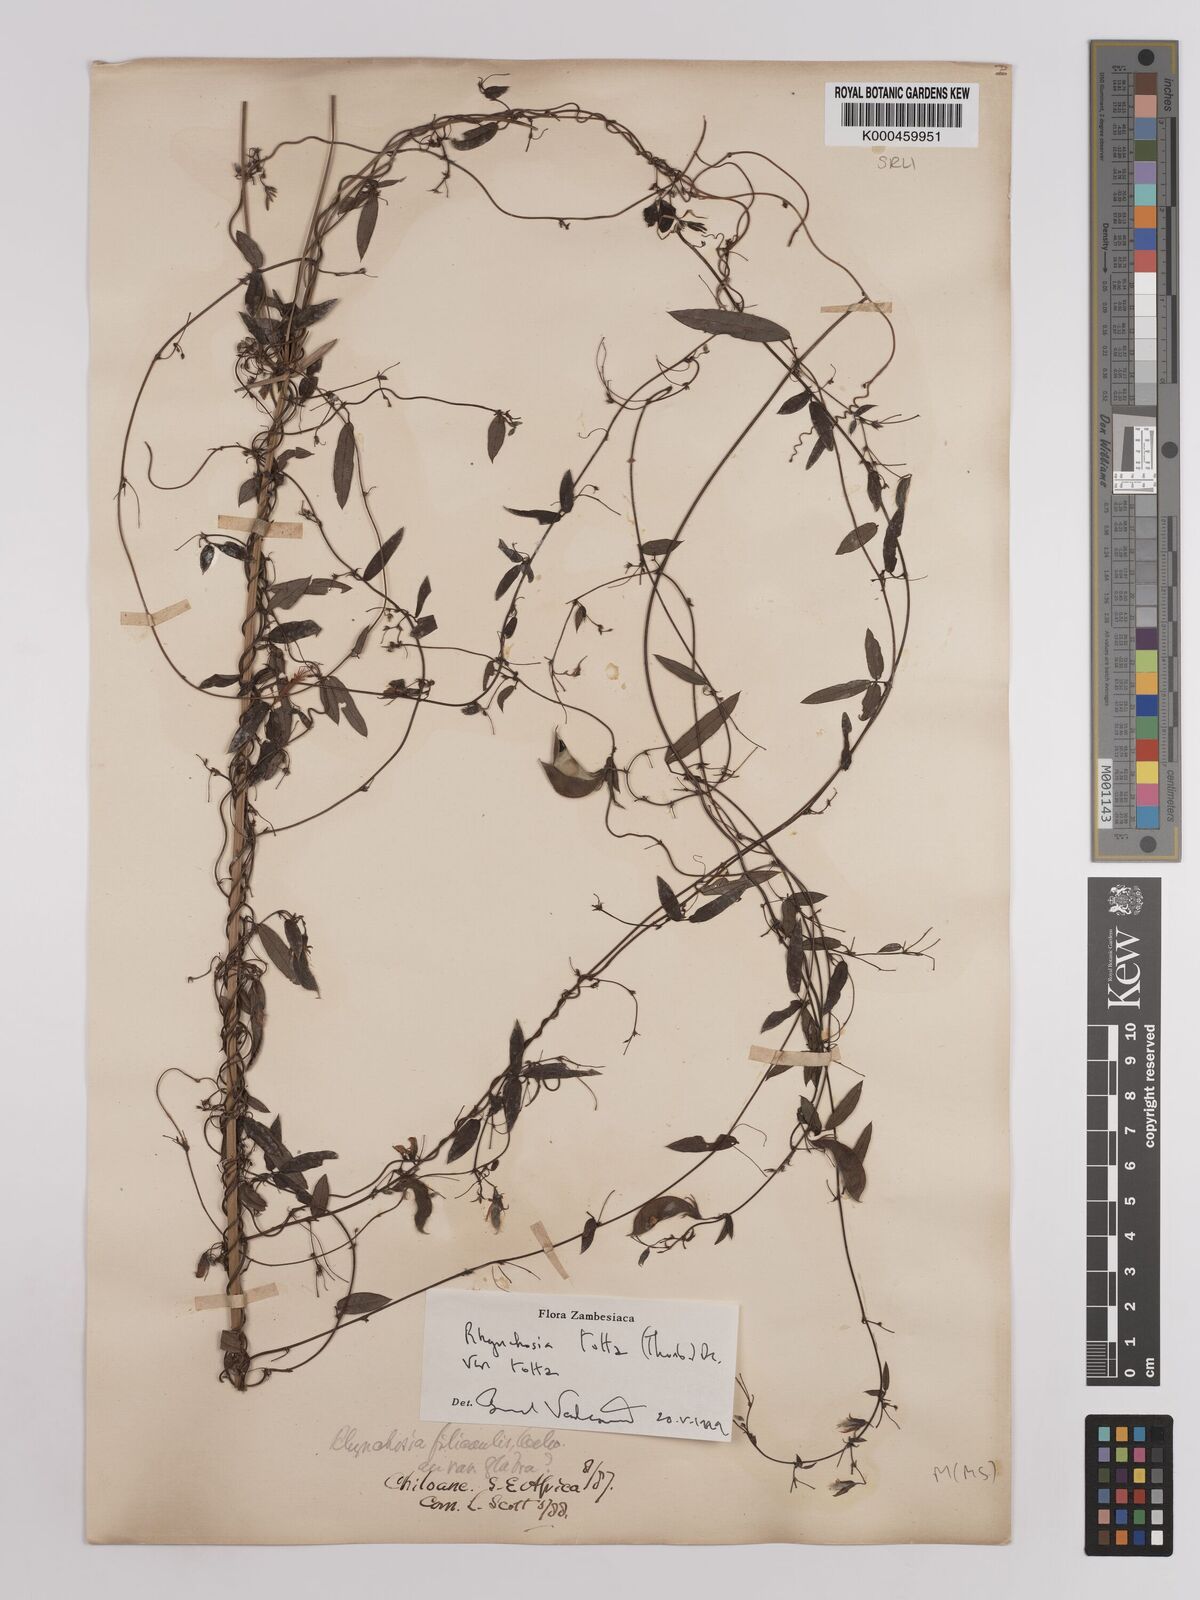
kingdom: Plantae
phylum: Tracheophyta
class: Magnoliopsida
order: Fabales
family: Fabaceae
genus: Rhynchosia
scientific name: Rhynchosia totta
